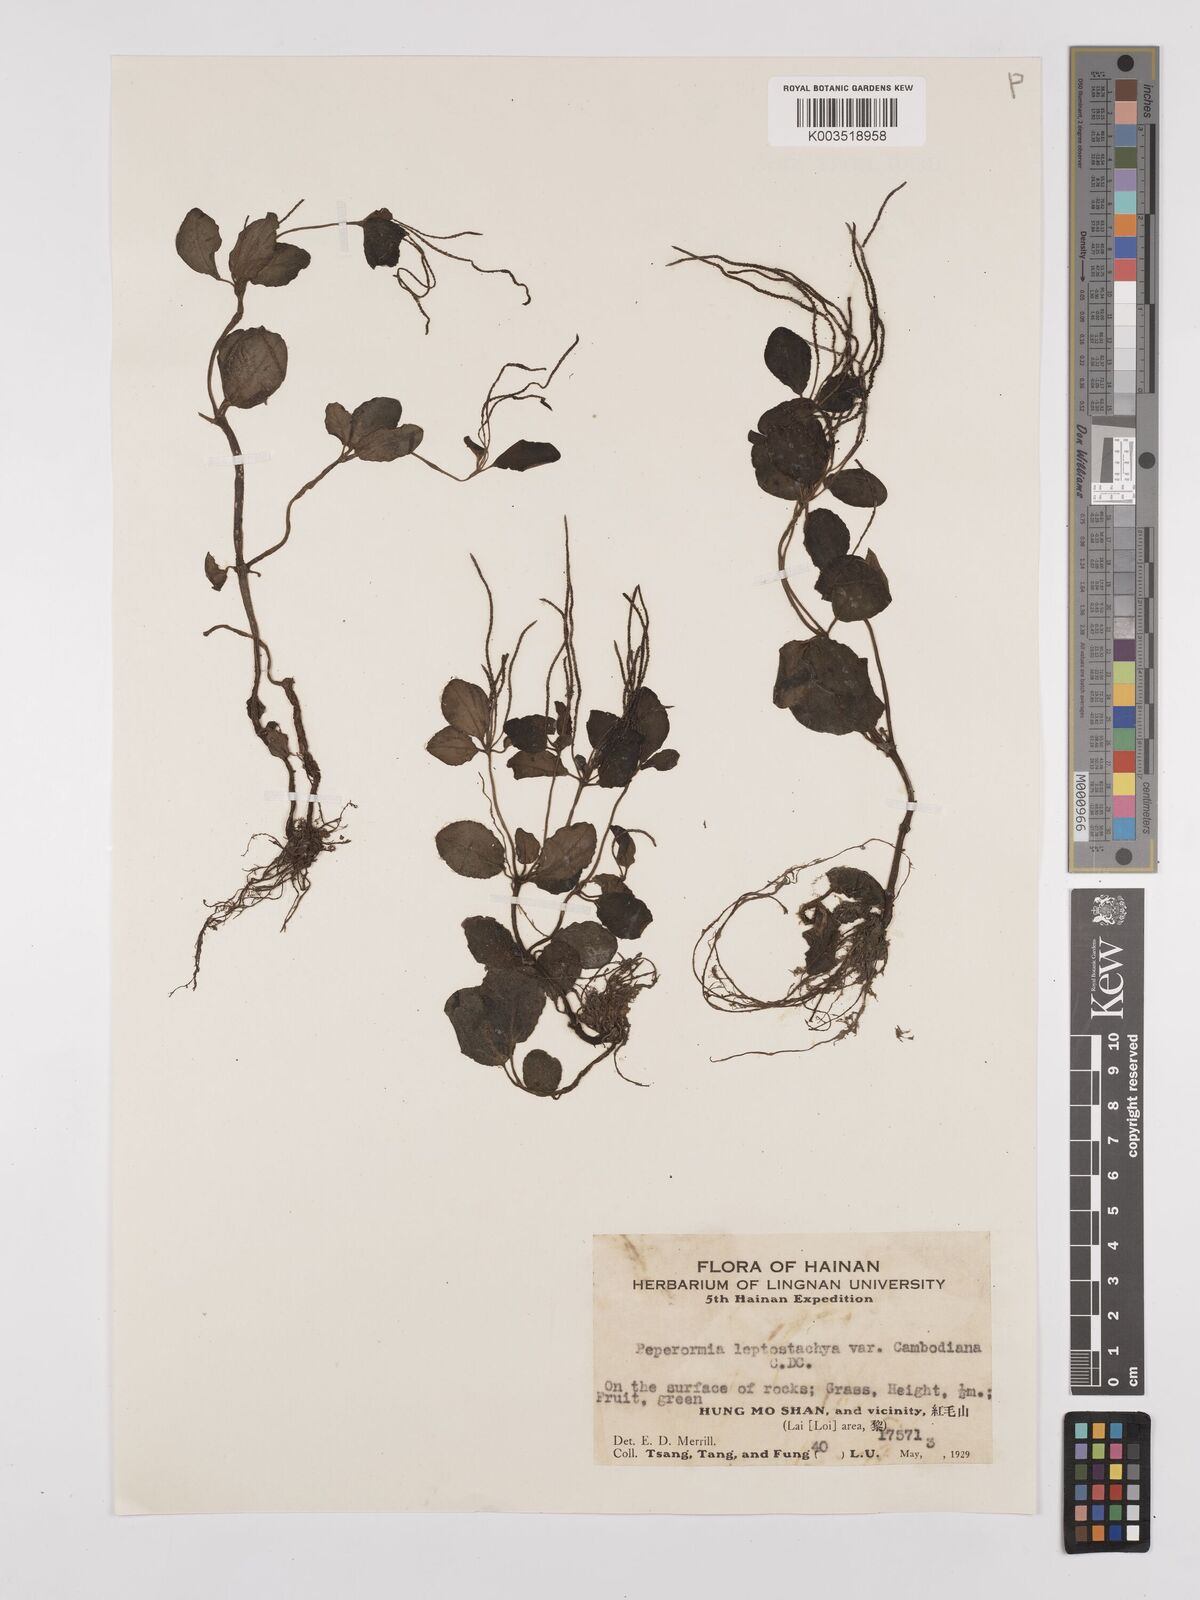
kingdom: Plantae
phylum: Tracheophyta
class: Magnoliopsida
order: Piperales
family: Piperaceae
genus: Peperomia
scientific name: Peperomia leptostachya
